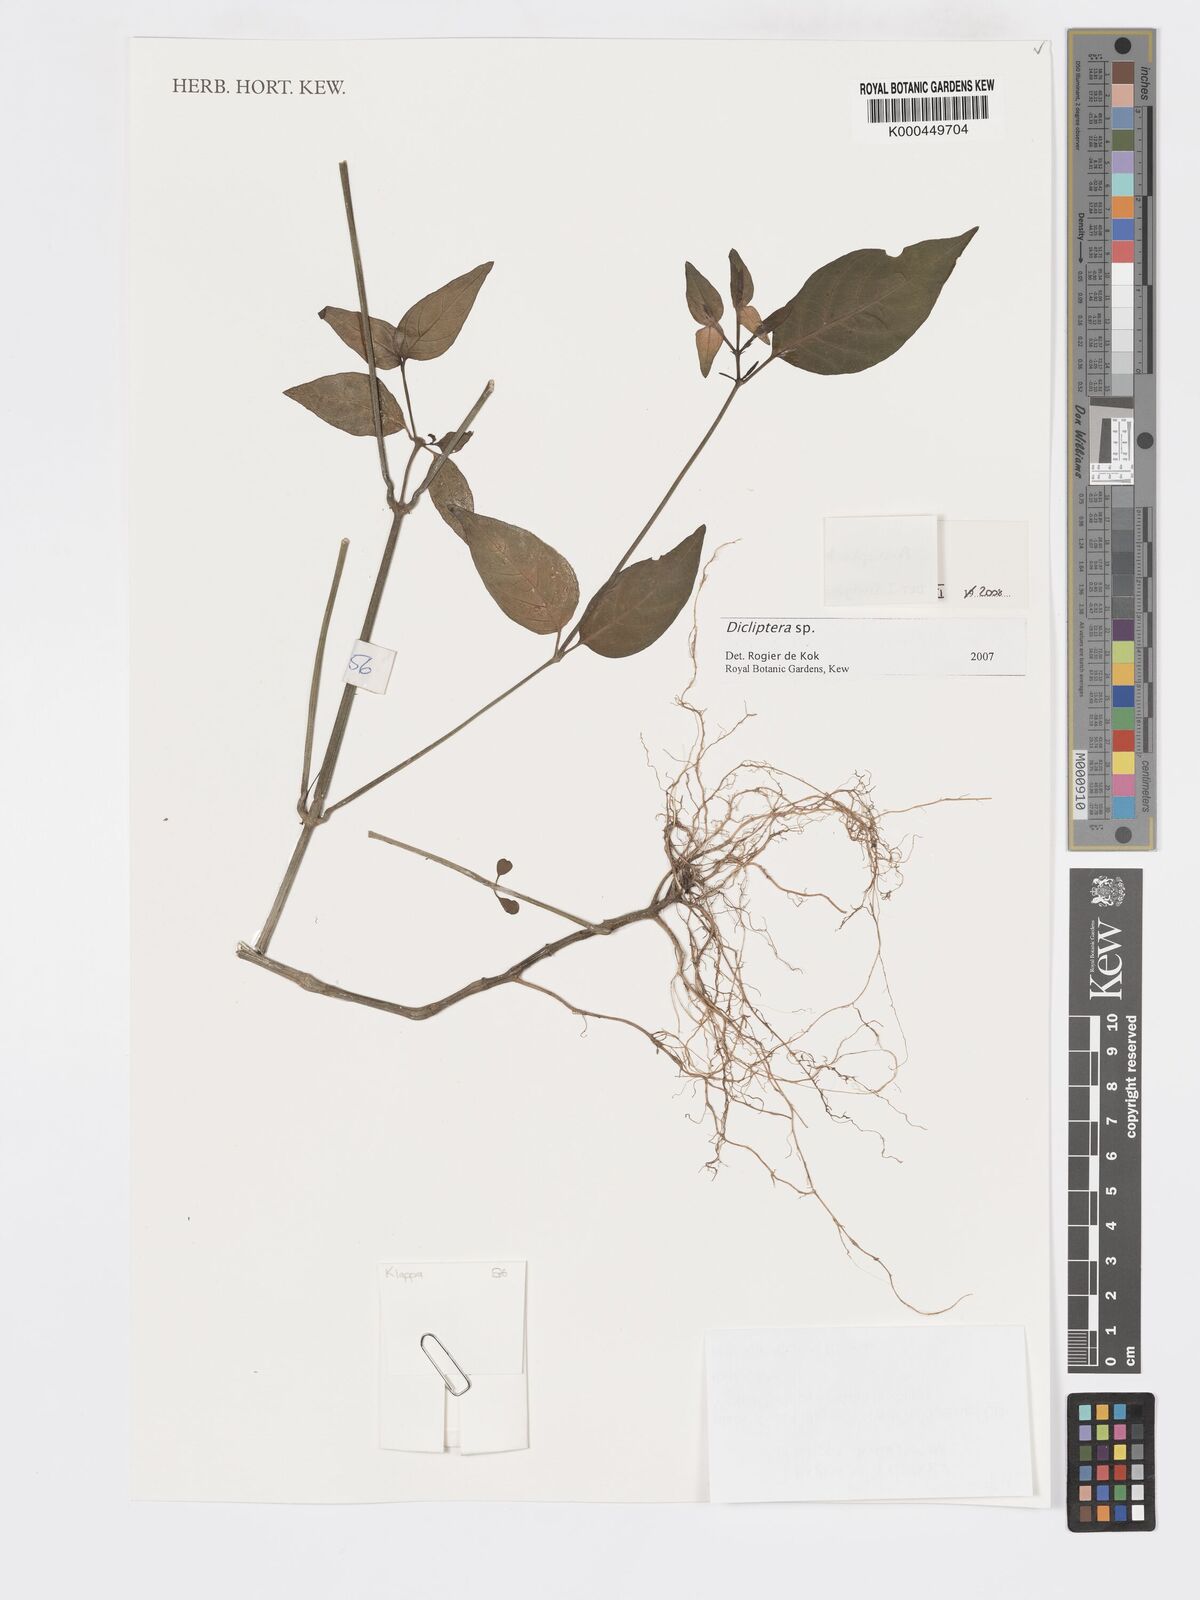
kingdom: Plantae
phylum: Tracheophyta
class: Magnoliopsida
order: Lamiales
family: Acanthaceae
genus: Dicliptera
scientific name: Dicliptera
